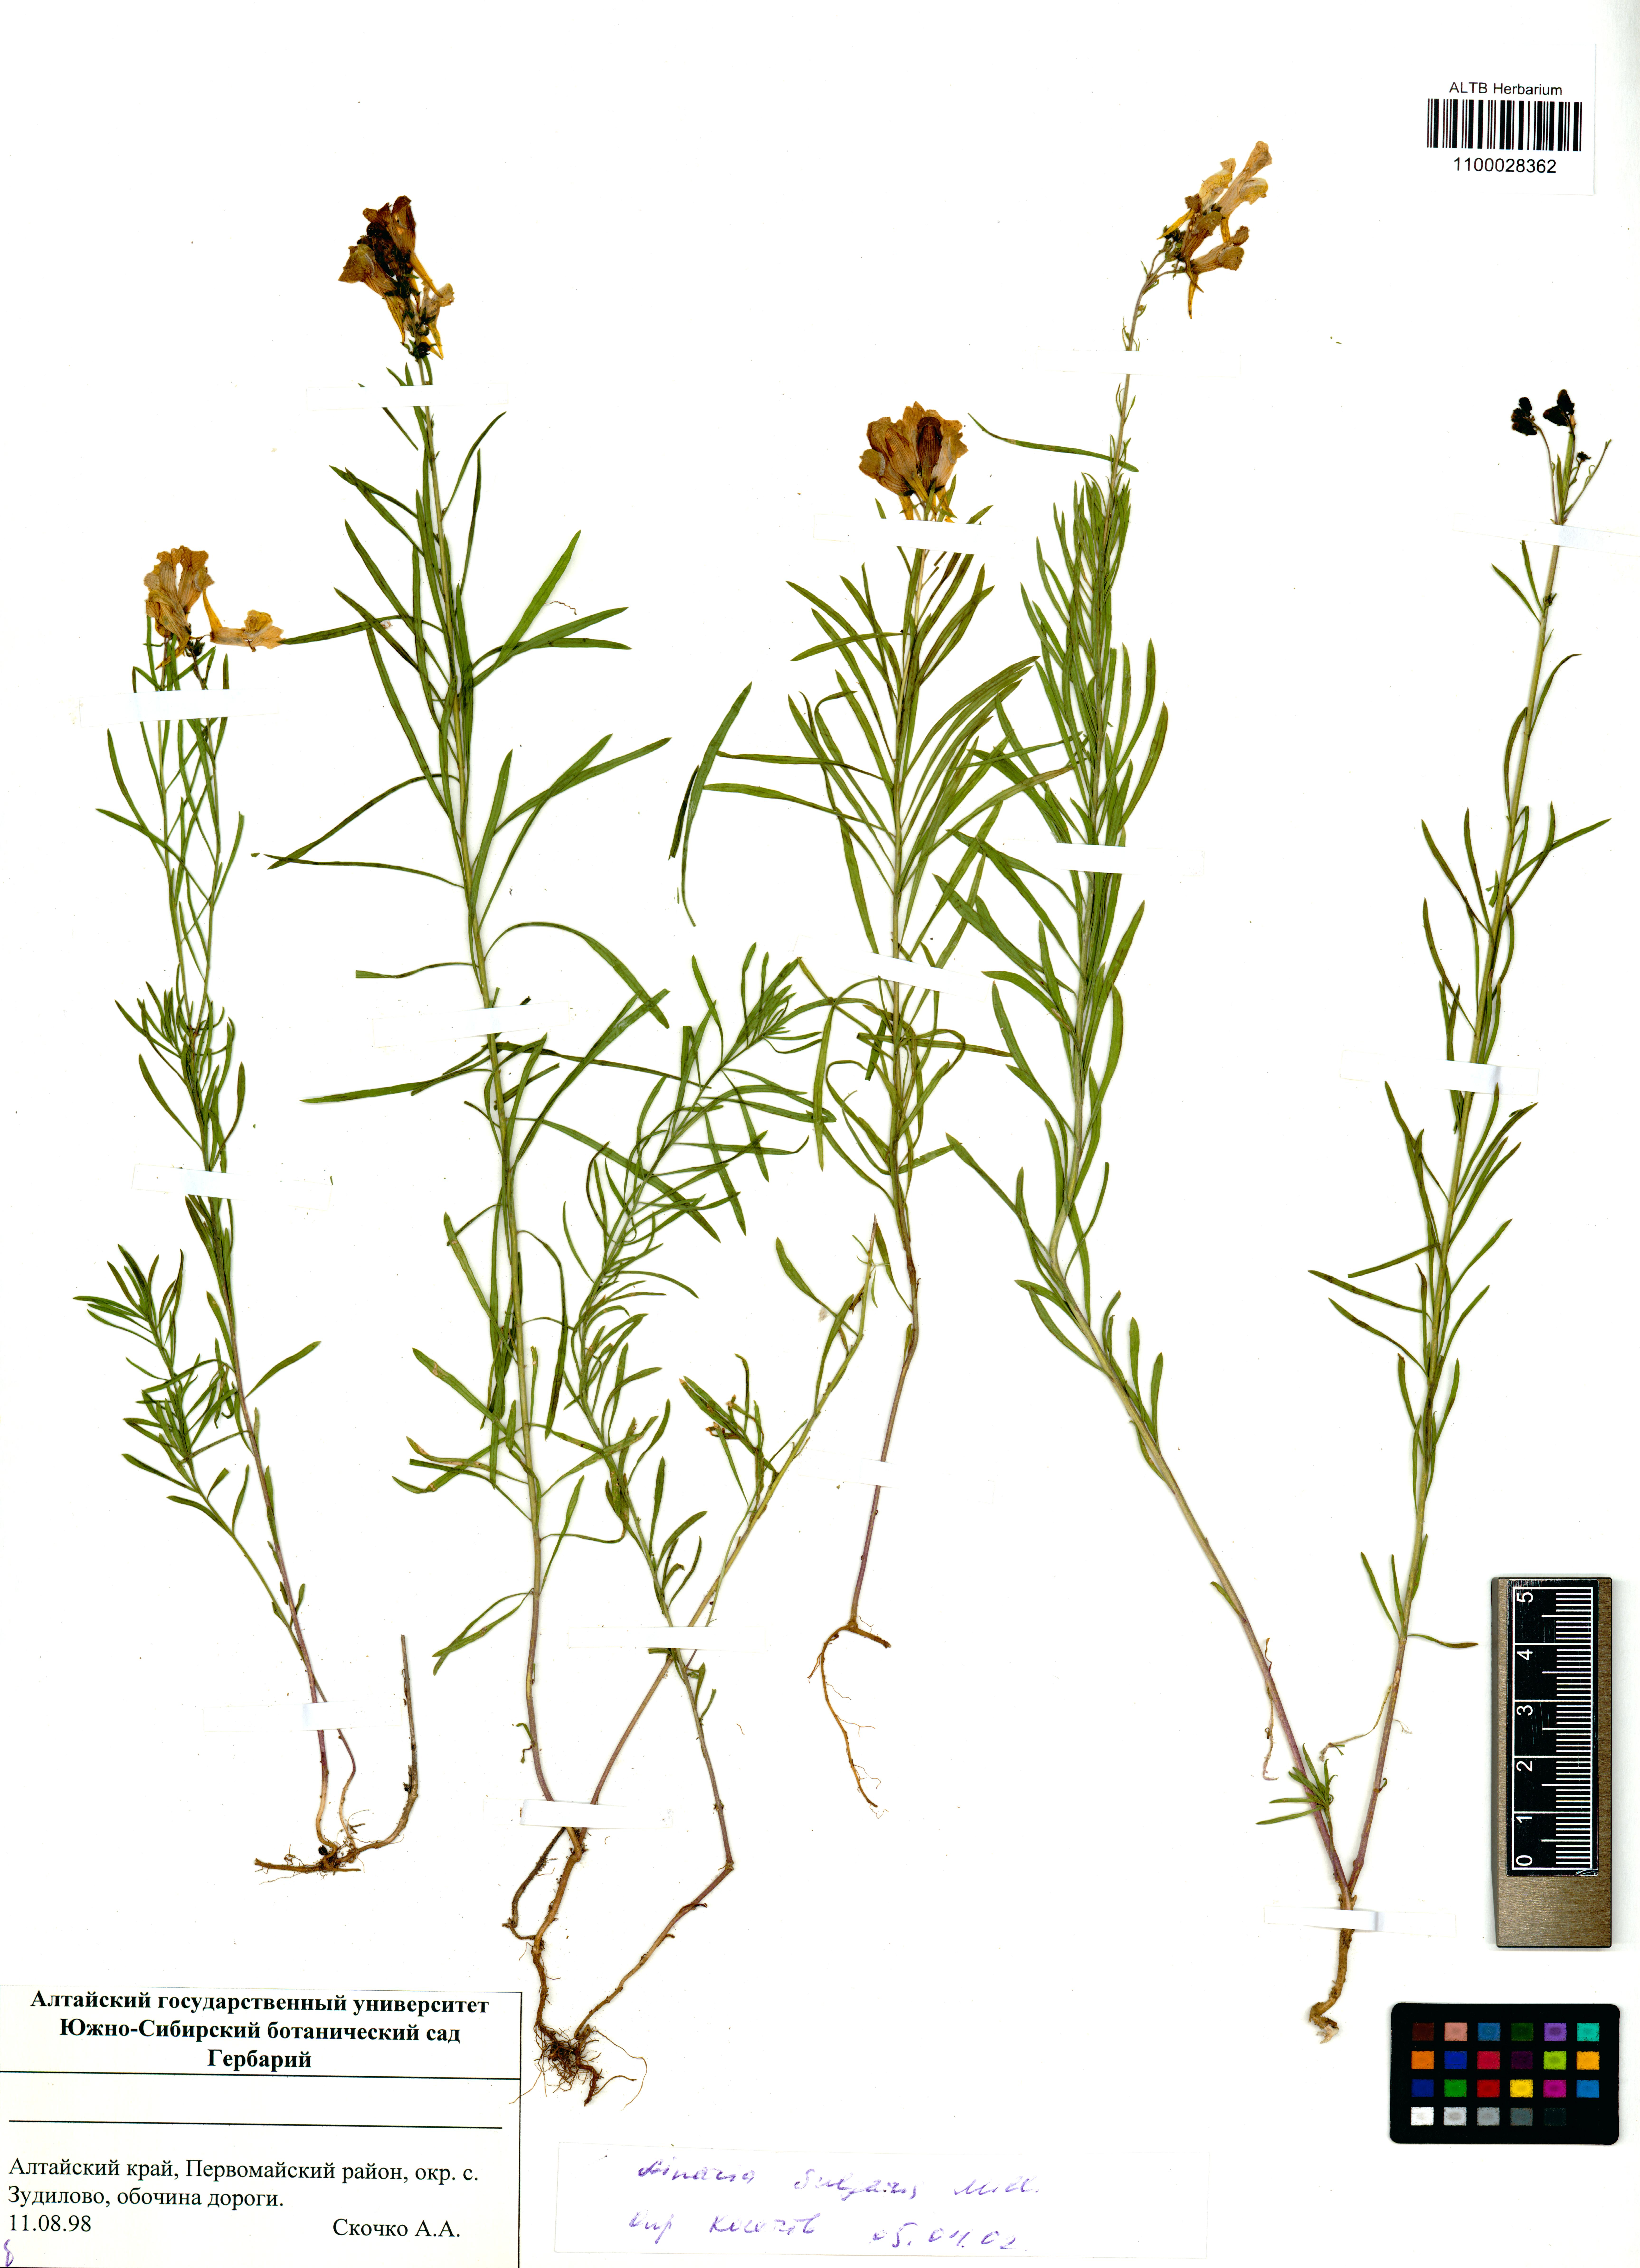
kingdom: Plantae
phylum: Tracheophyta
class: Magnoliopsida
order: Lamiales
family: Plantaginaceae
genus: Linaria
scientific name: Linaria vulgaris
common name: Butter and eggs
